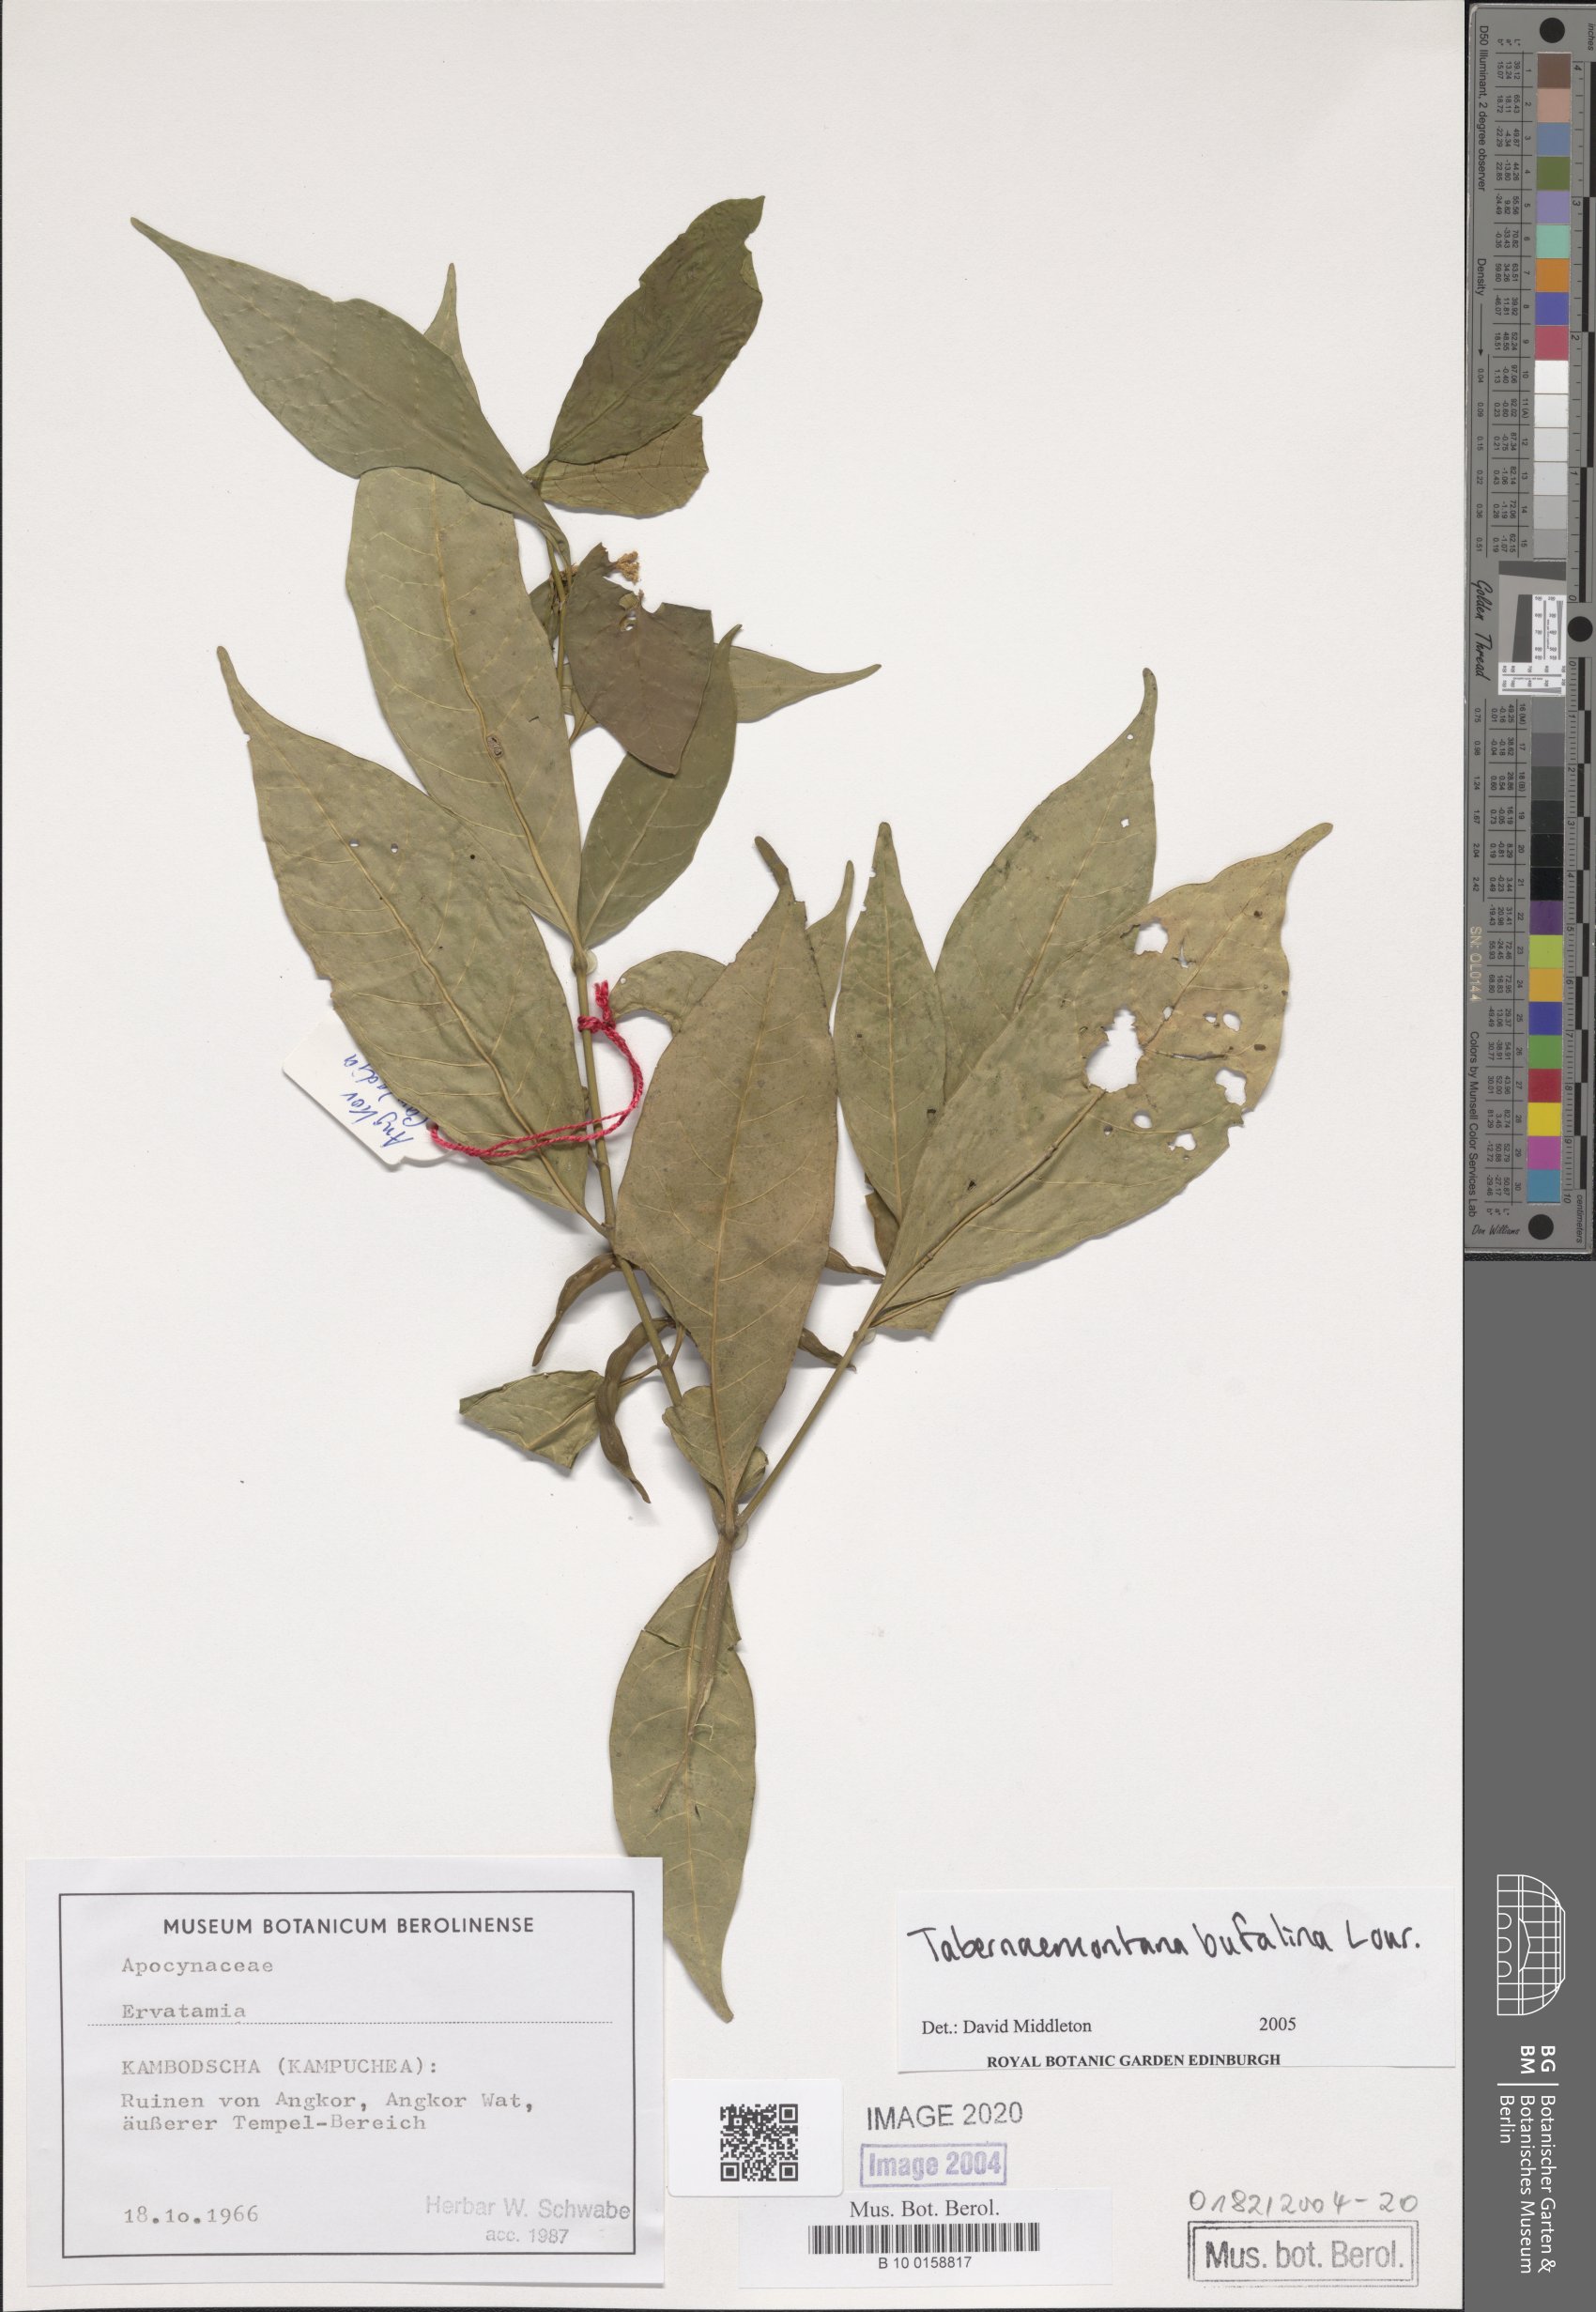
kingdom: Plantae
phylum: Tracheophyta
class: Magnoliopsida
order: Gentianales
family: Apocynaceae
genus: Tabernaemontana
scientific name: Tabernaemontana
